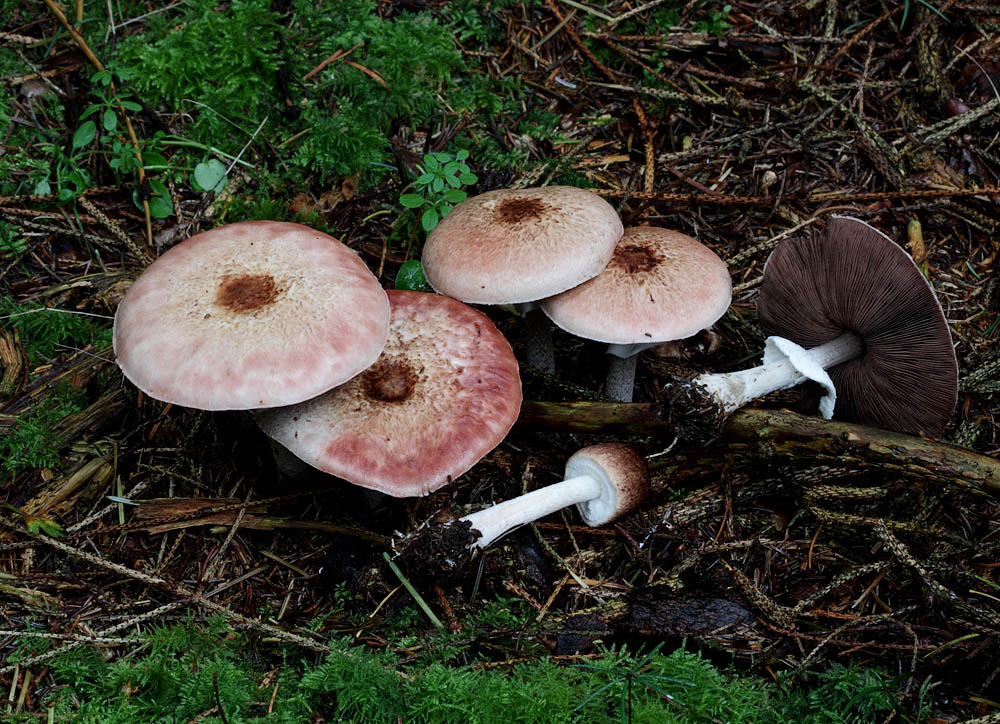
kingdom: Fungi
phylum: Basidiomycota
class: Agaricomycetes
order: Agaricales
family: Agaricaceae
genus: Agaricus
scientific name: Agaricus impudicus
